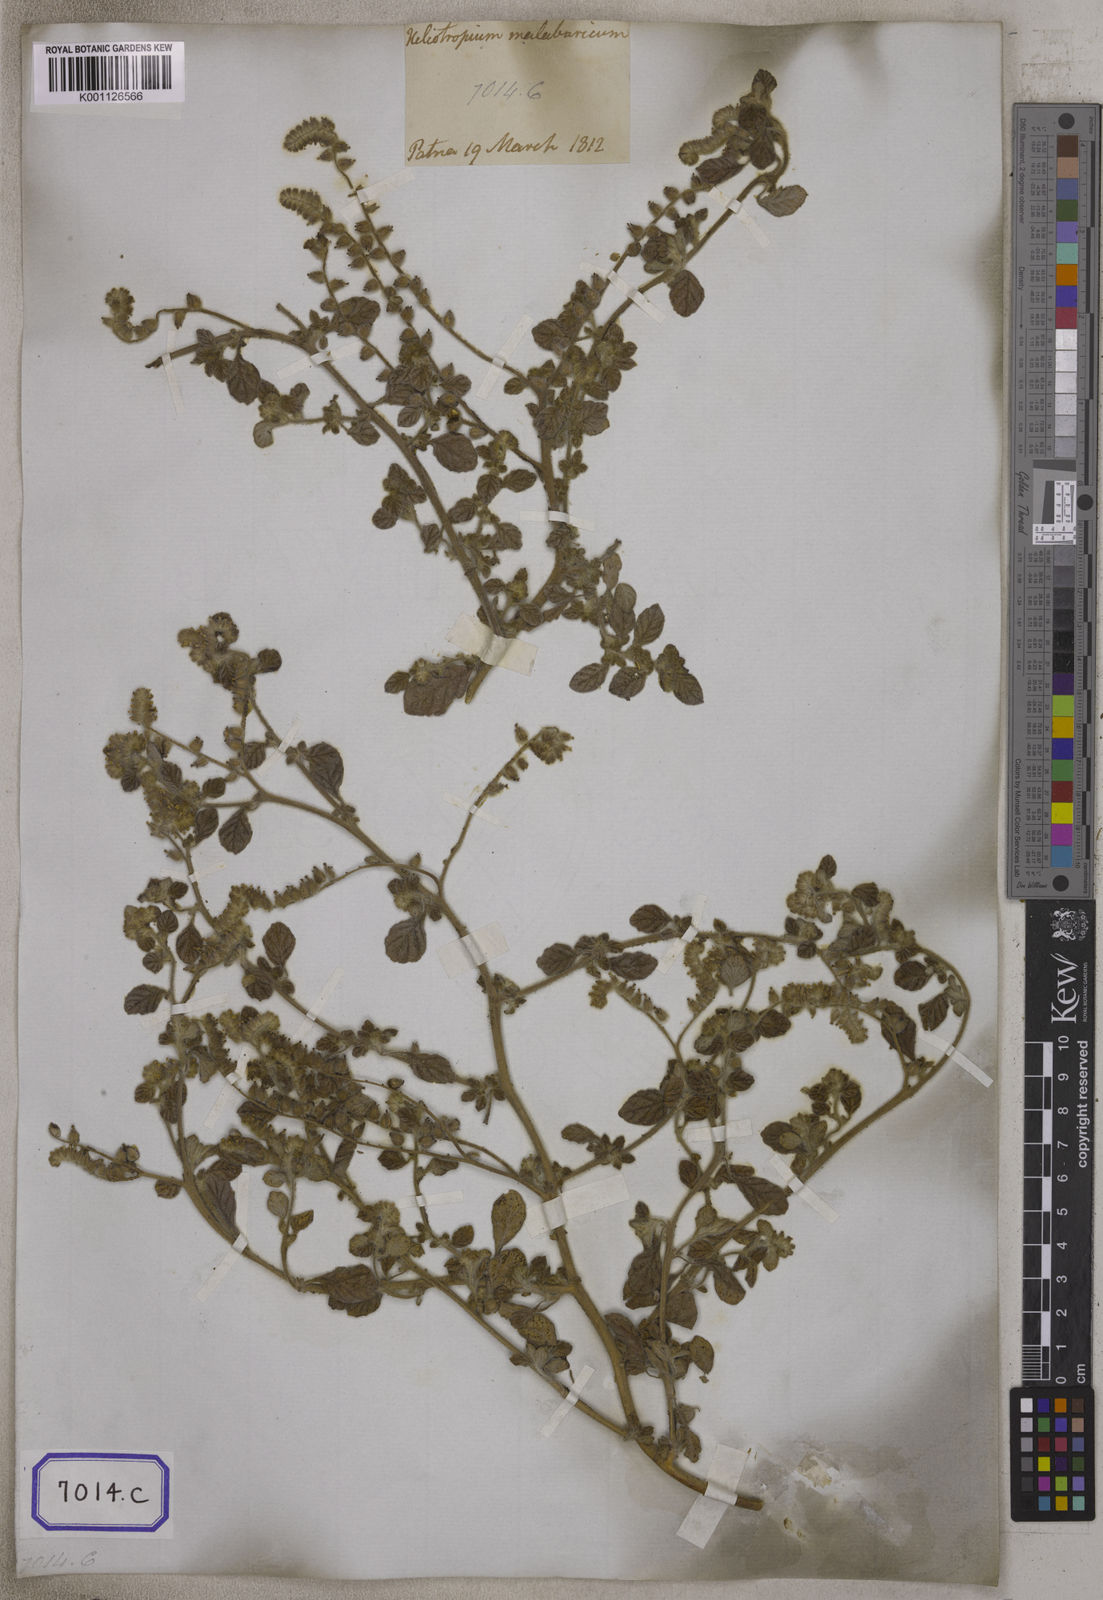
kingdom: Plantae
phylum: Tracheophyta
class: Magnoliopsida
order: Boraginales
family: Heliotropiaceae
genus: Heliotropium
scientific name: Heliotropium supinum
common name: Dwarf heliotrope
